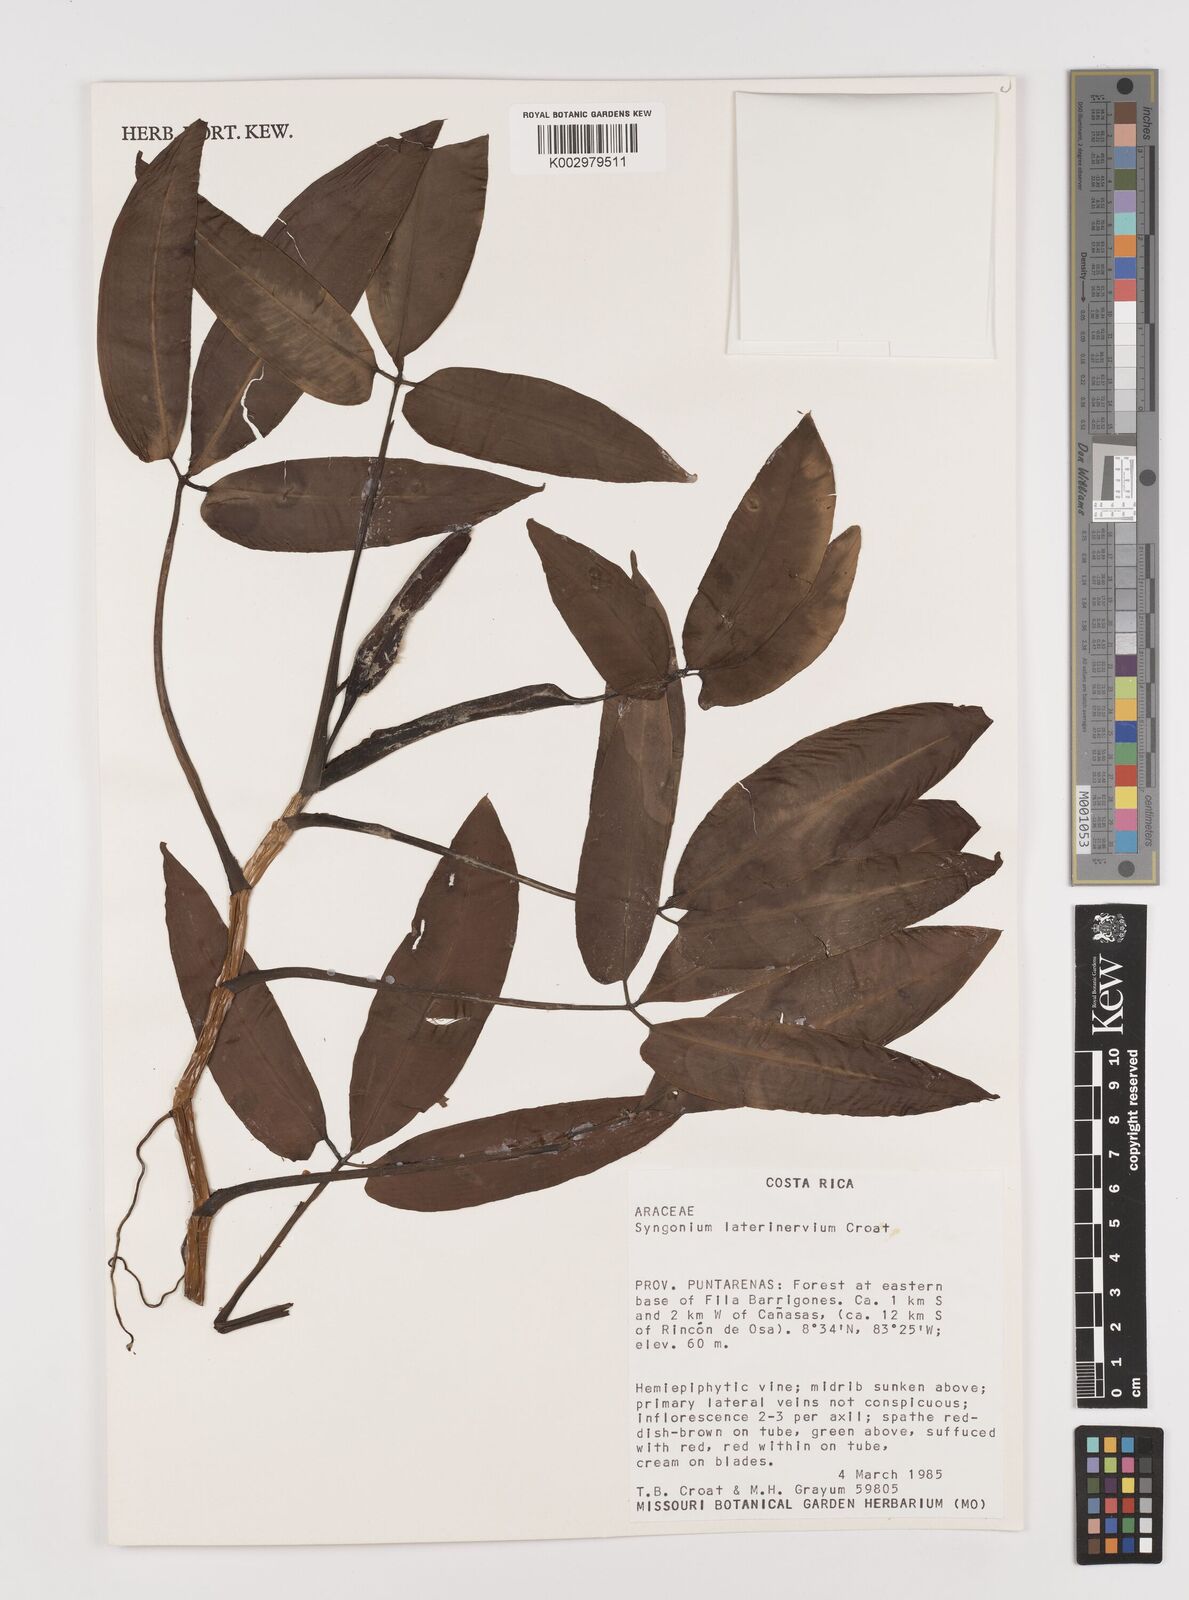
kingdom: Plantae
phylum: Tracheophyta
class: Liliopsida
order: Alismatales
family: Araceae
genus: Syngonium
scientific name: Syngonium laterinervium
